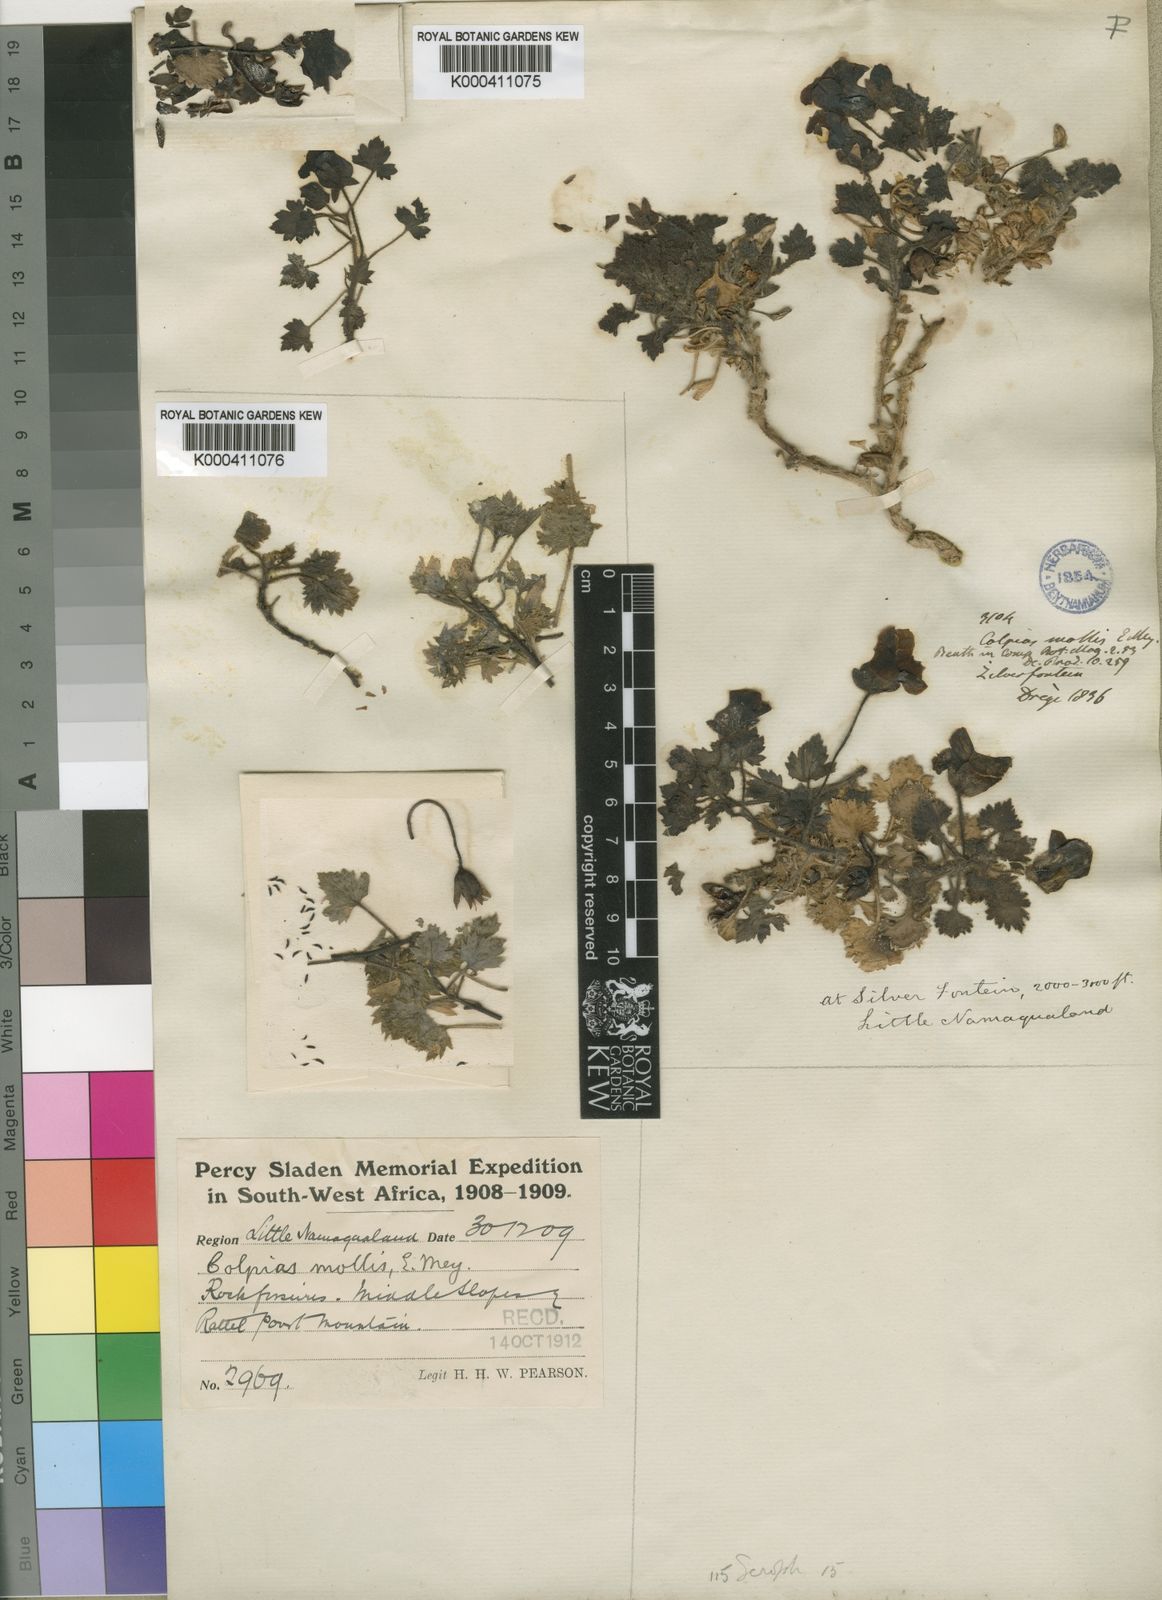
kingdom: Plantae
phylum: Tracheophyta
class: Magnoliopsida
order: Lamiales
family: Scrophulariaceae
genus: Colpias
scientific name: Colpias mollis
